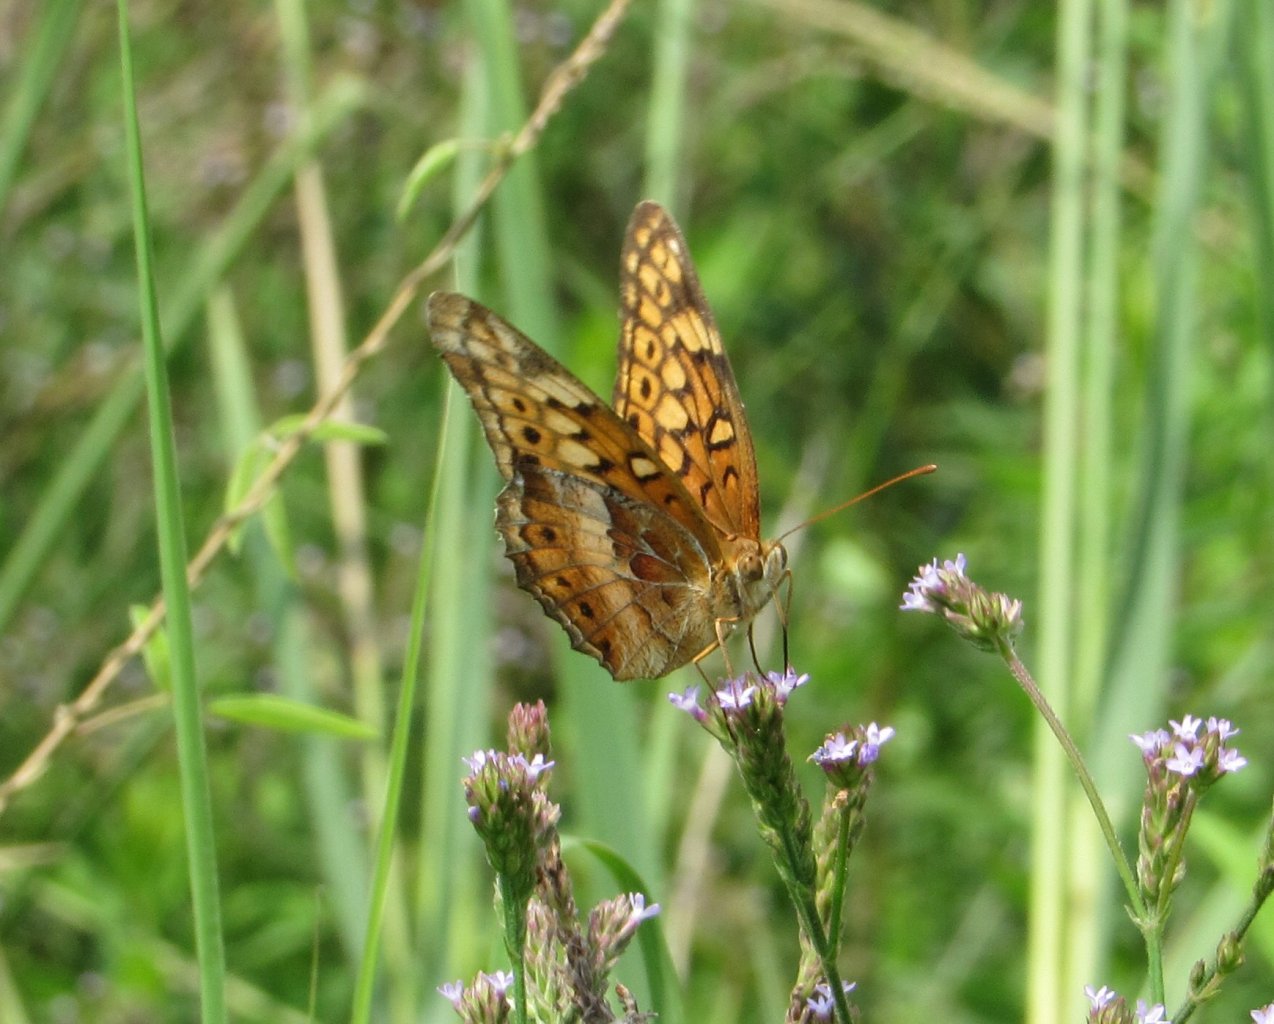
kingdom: Animalia
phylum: Arthropoda
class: Insecta
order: Lepidoptera
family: Nymphalidae
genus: Euptoieta
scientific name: Euptoieta claudia
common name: Variegated Fritillary
